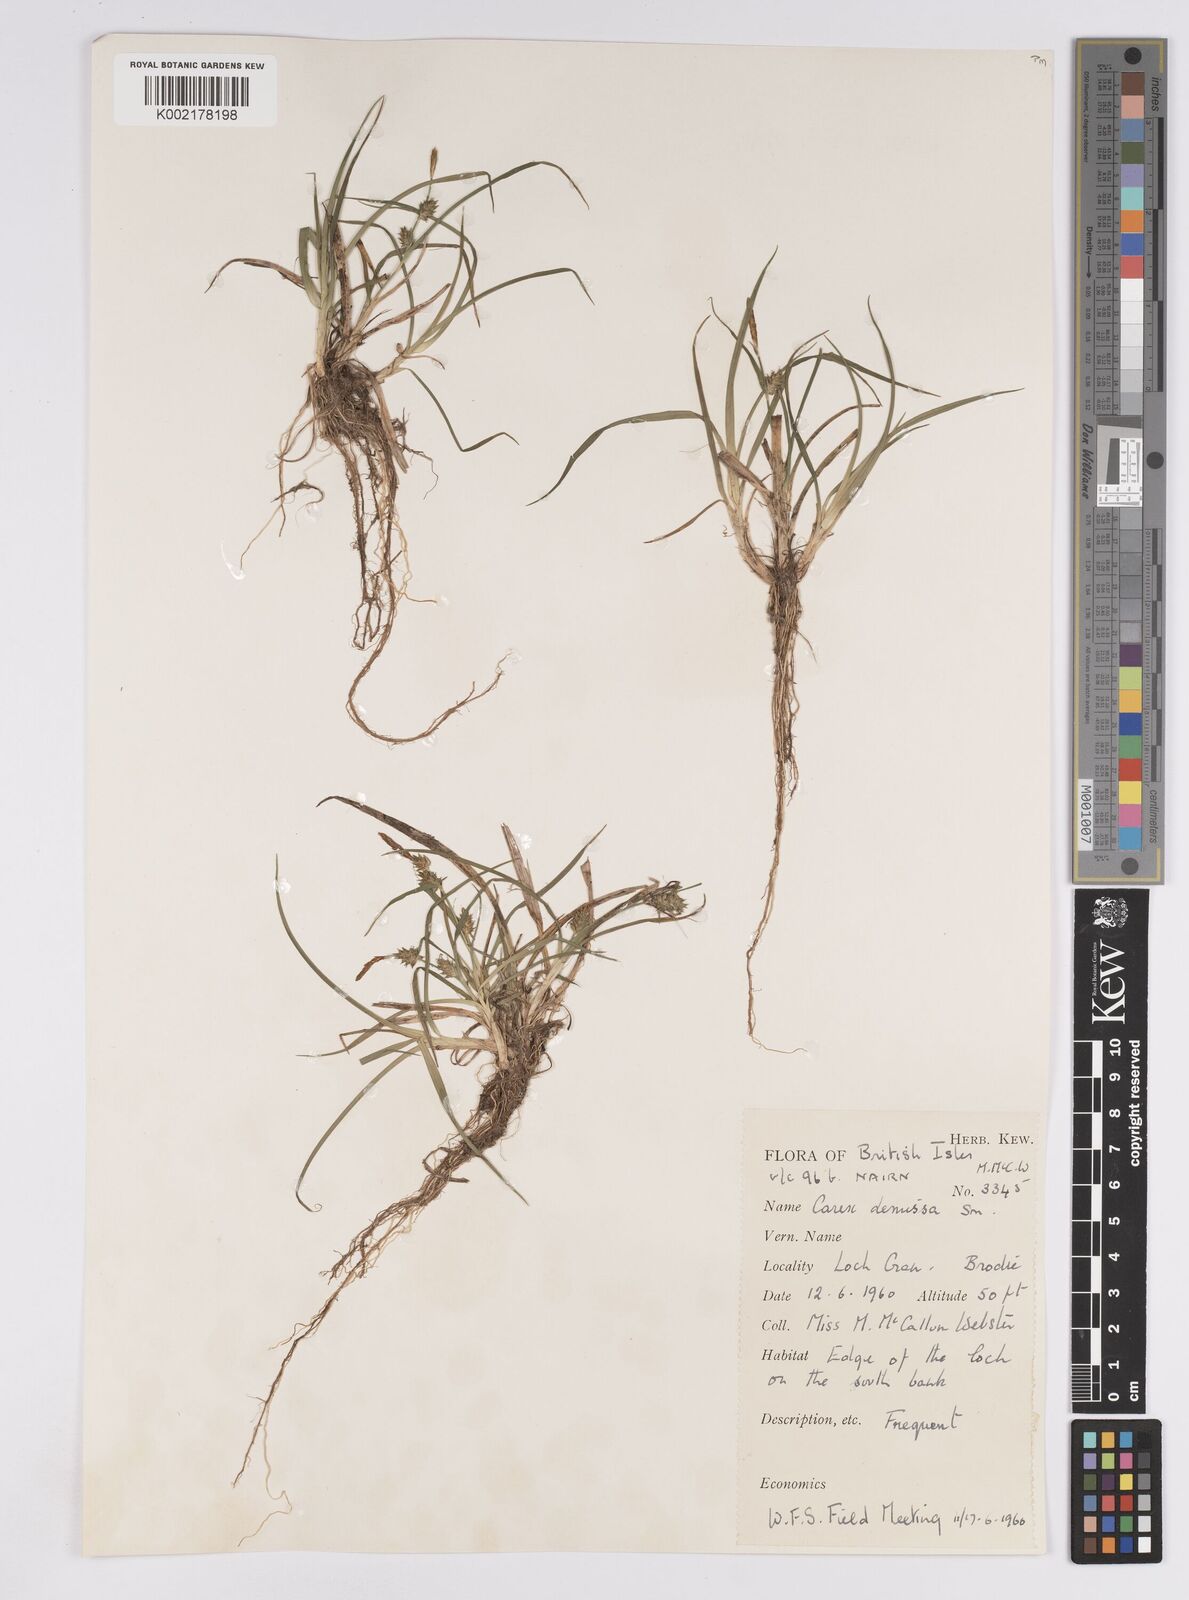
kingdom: Plantae
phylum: Tracheophyta
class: Liliopsida
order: Poales
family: Cyperaceae
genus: Carex
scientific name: Carex demissa
